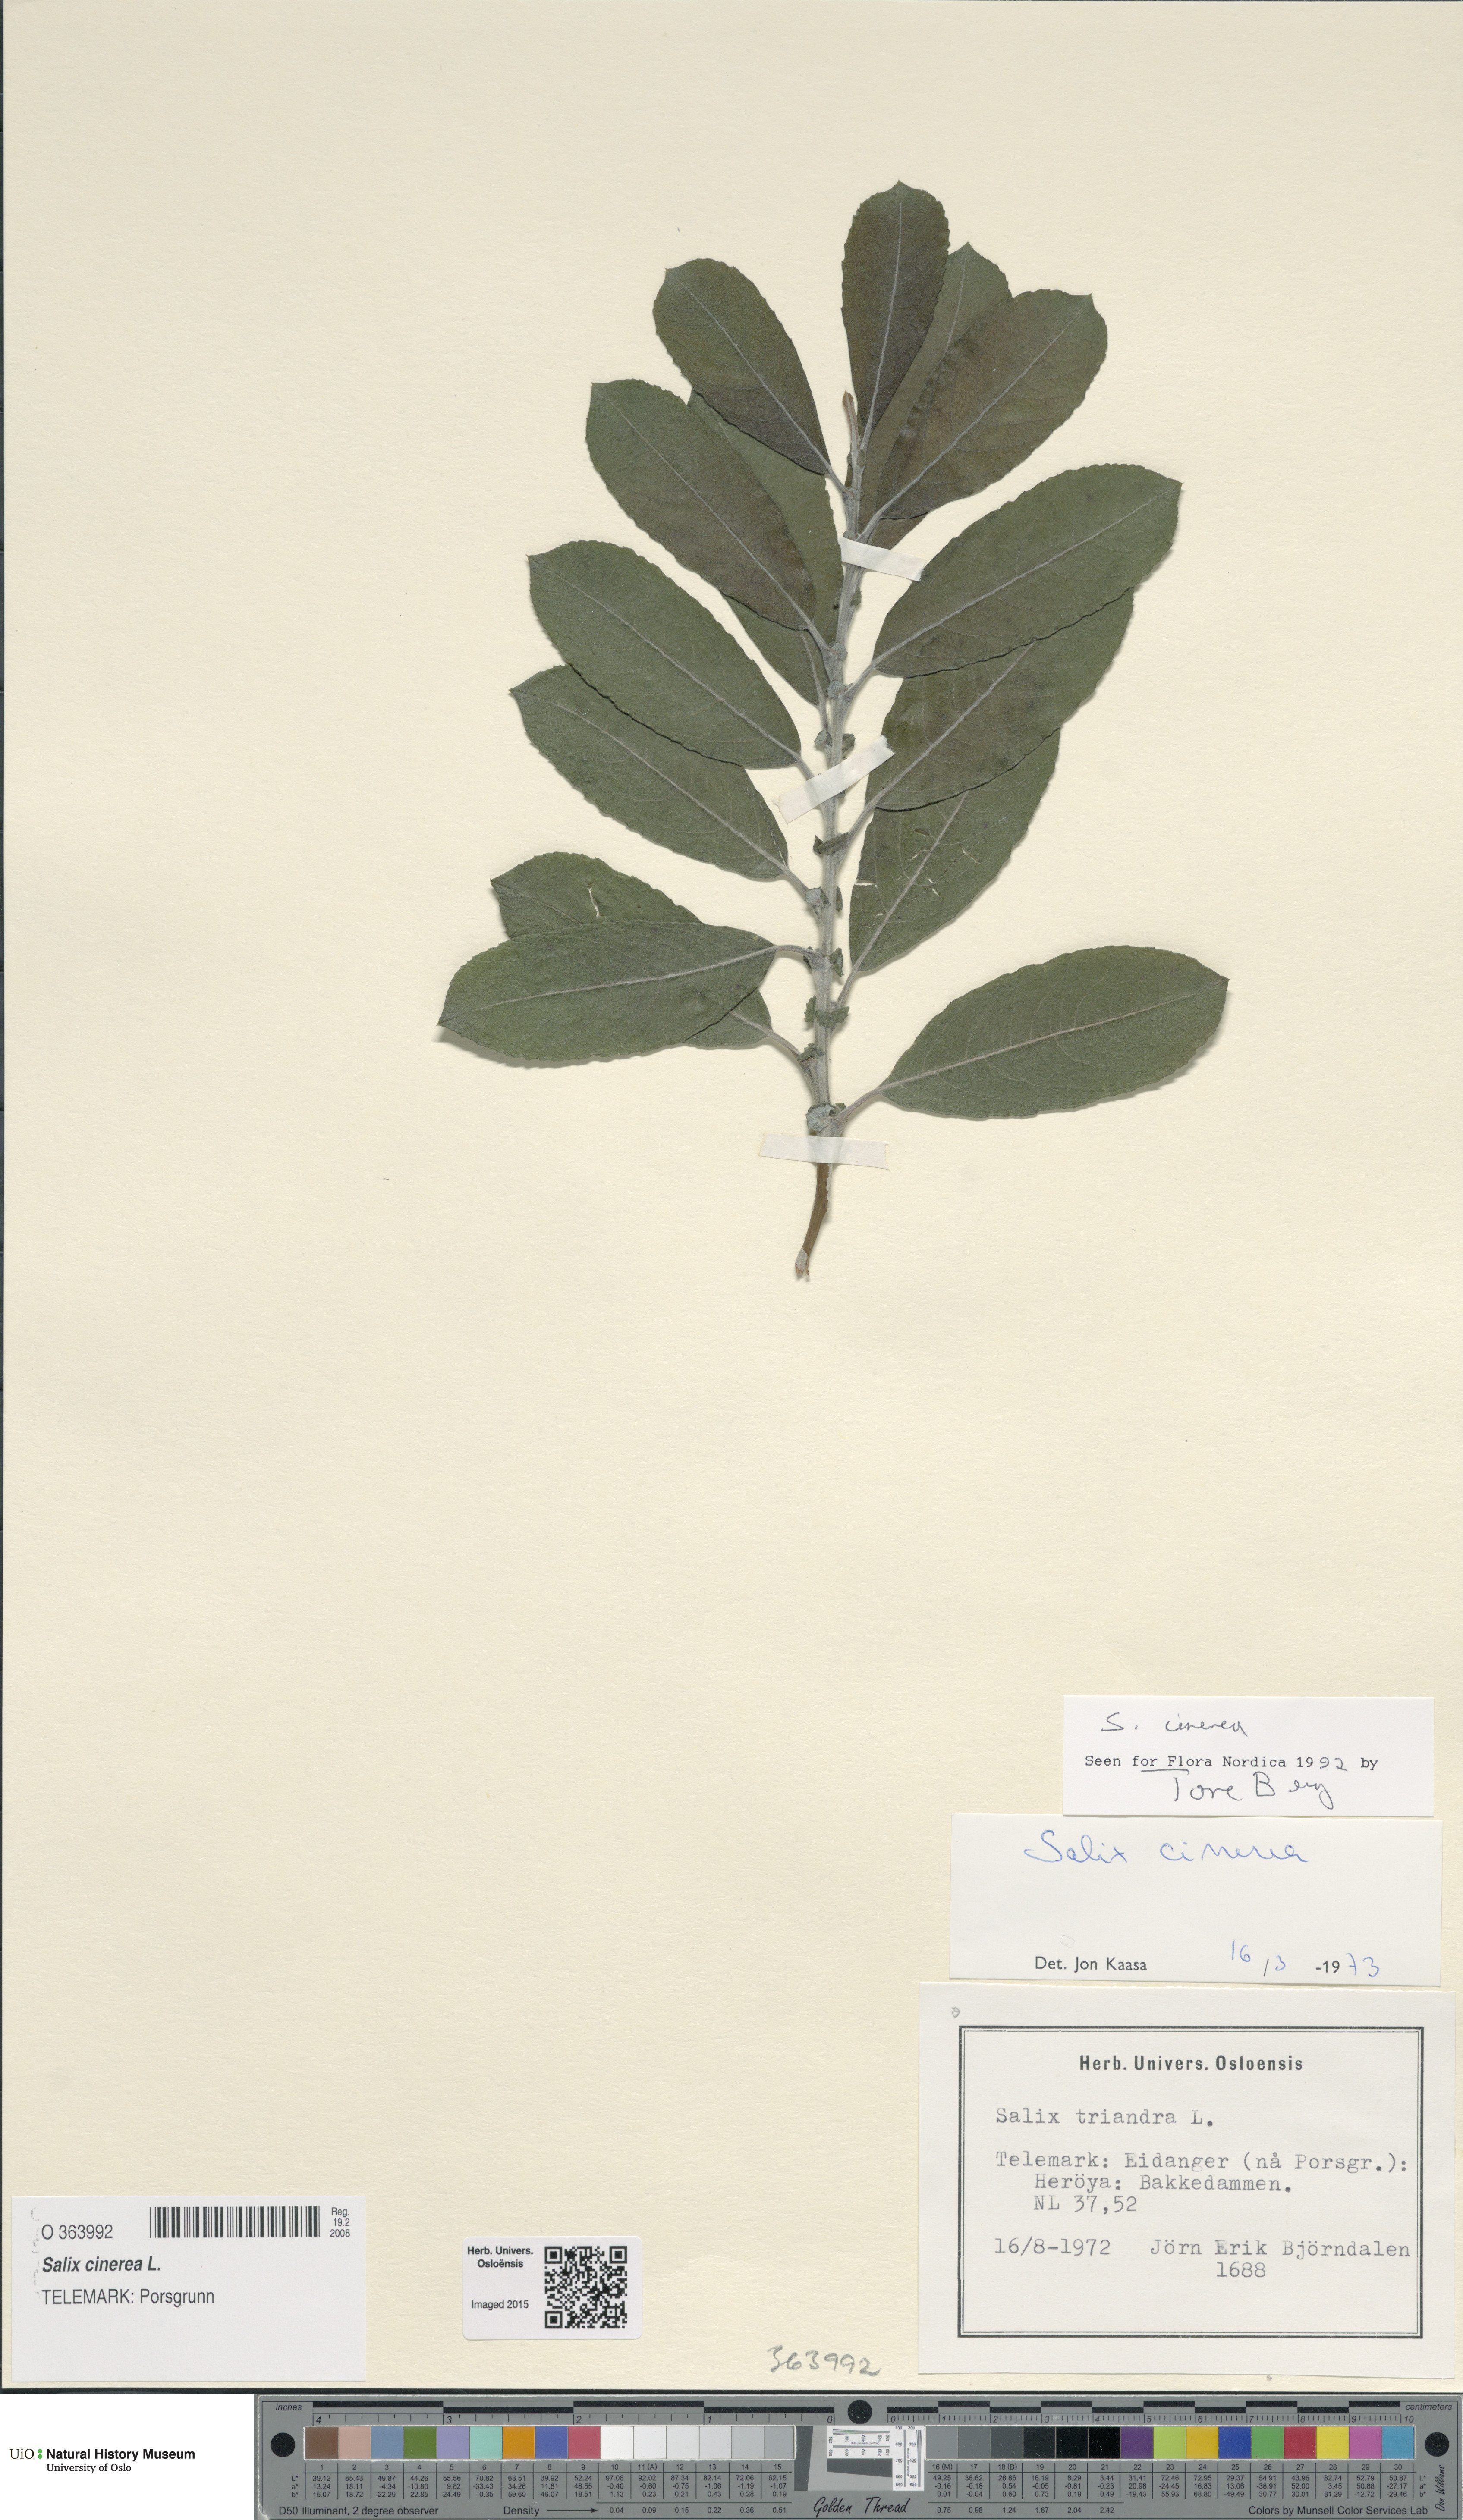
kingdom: Plantae
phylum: Tracheophyta
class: Magnoliopsida
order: Malpighiales
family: Salicaceae
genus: Salix
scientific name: Salix cinerea
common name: Common sallow
